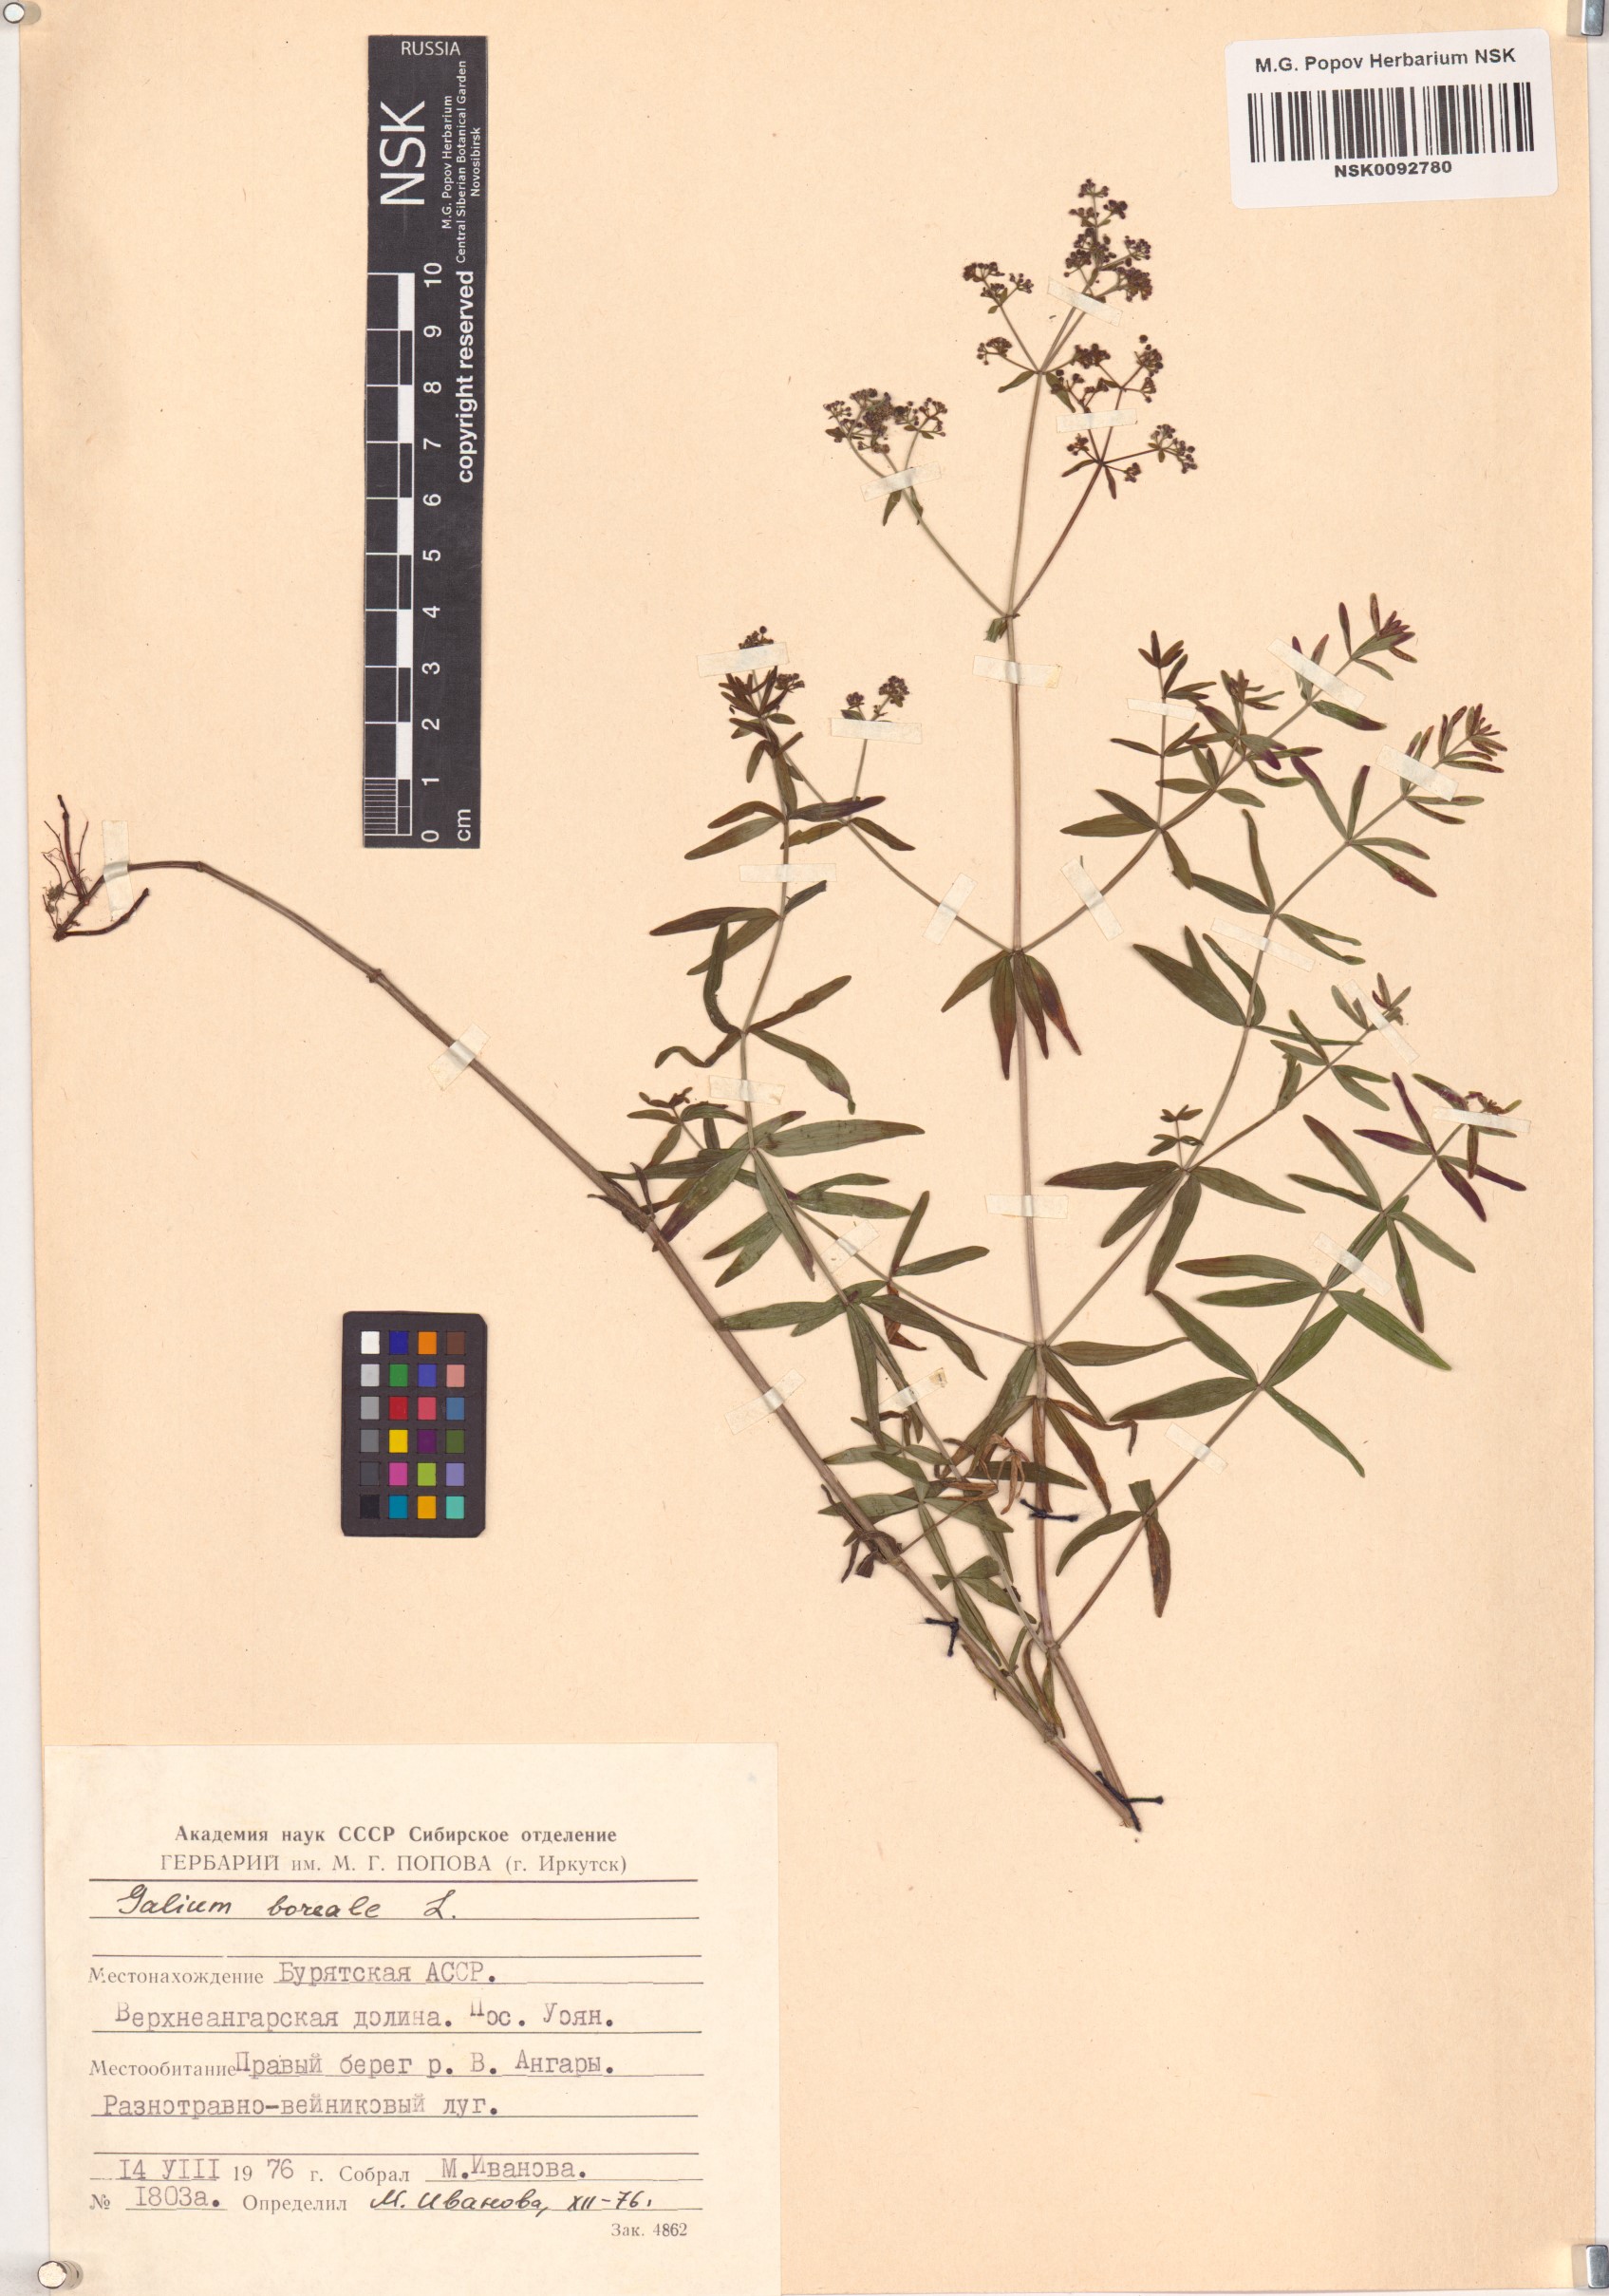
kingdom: Plantae
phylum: Tracheophyta
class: Magnoliopsida
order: Gentianales
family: Rubiaceae
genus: Galium
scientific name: Galium boreale
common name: Northern bedstraw
